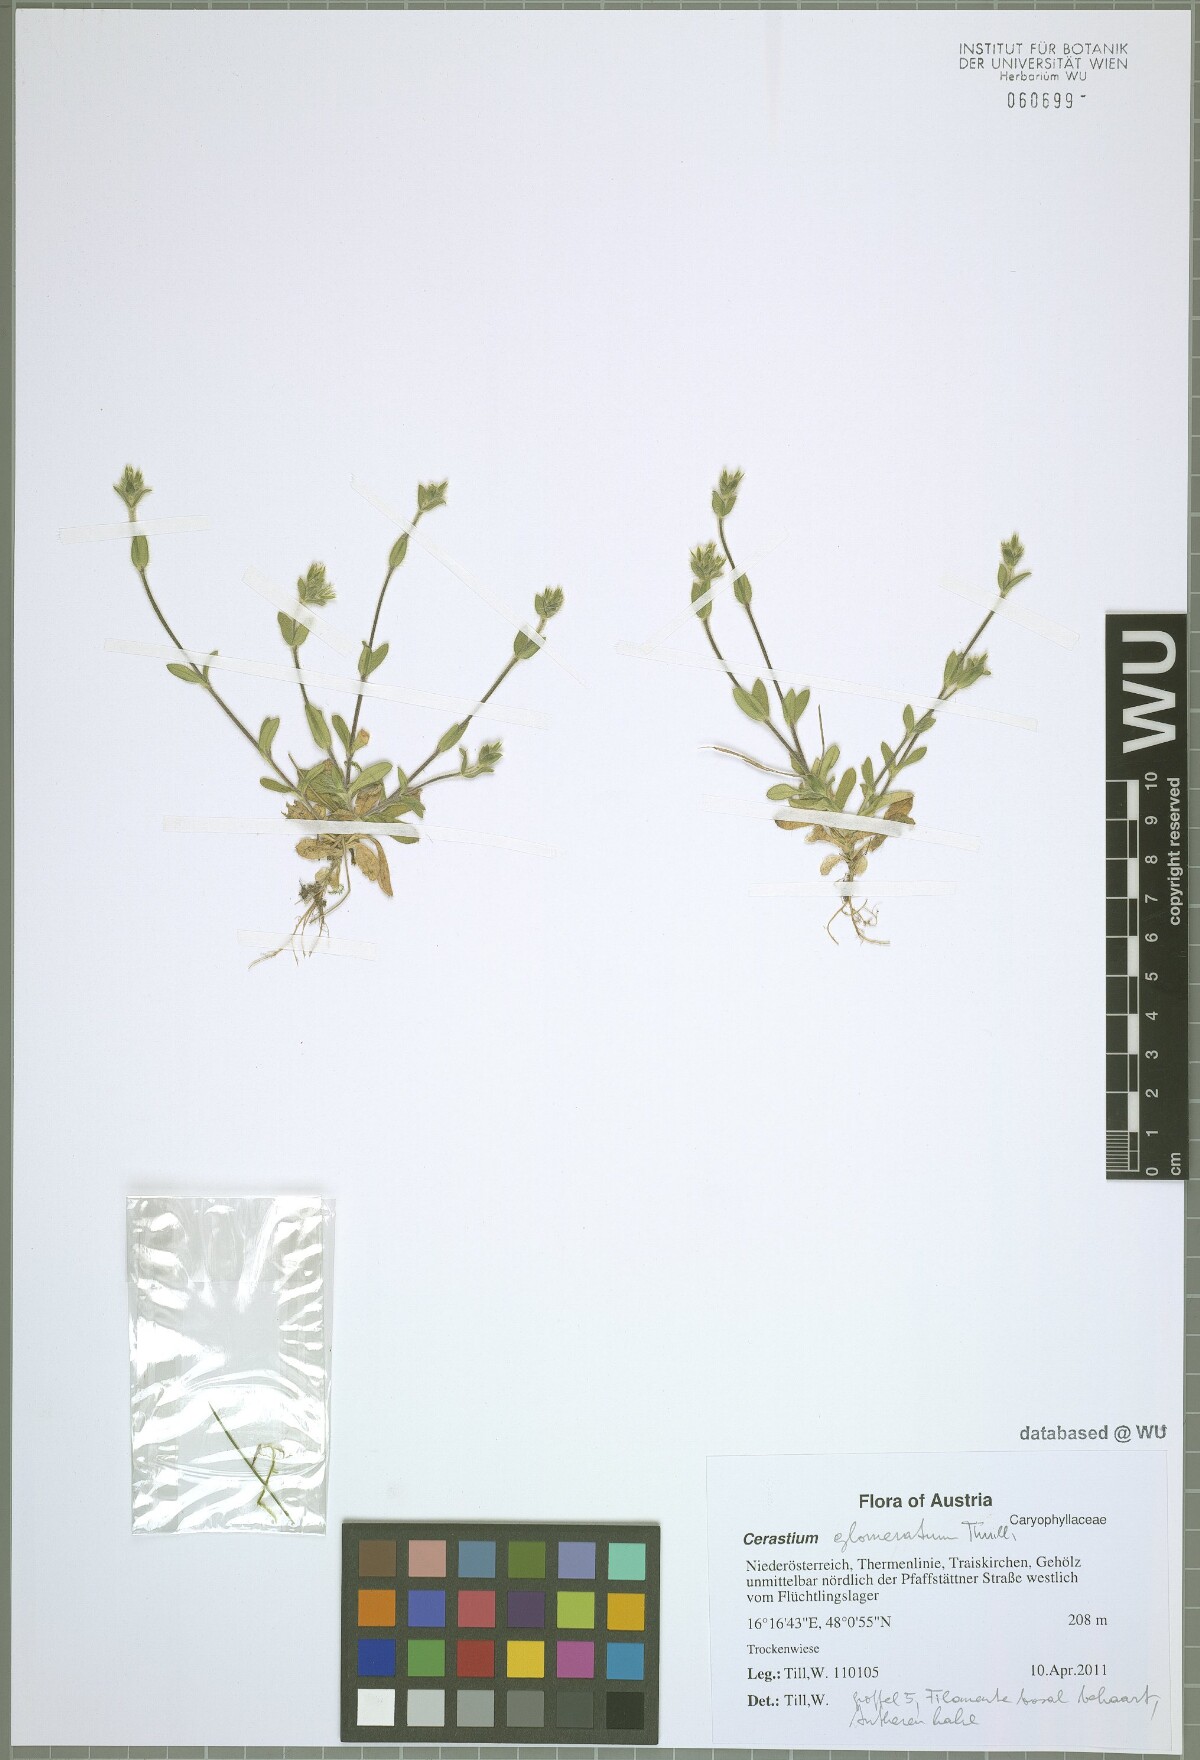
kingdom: Plantae
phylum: Tracheophyta
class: Magnoliopsida
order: Caryophyllales
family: Caryophyllaceae
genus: Cerastium
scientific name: Cerastium glomeratum
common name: Sticky chickweed
